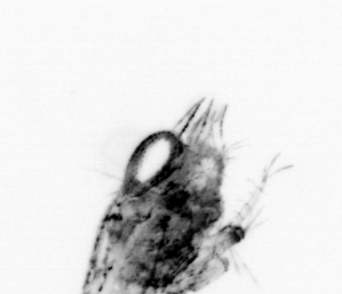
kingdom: Animalia
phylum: Arthropoda
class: Malacostraca
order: Decapoda
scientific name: Decapoda
